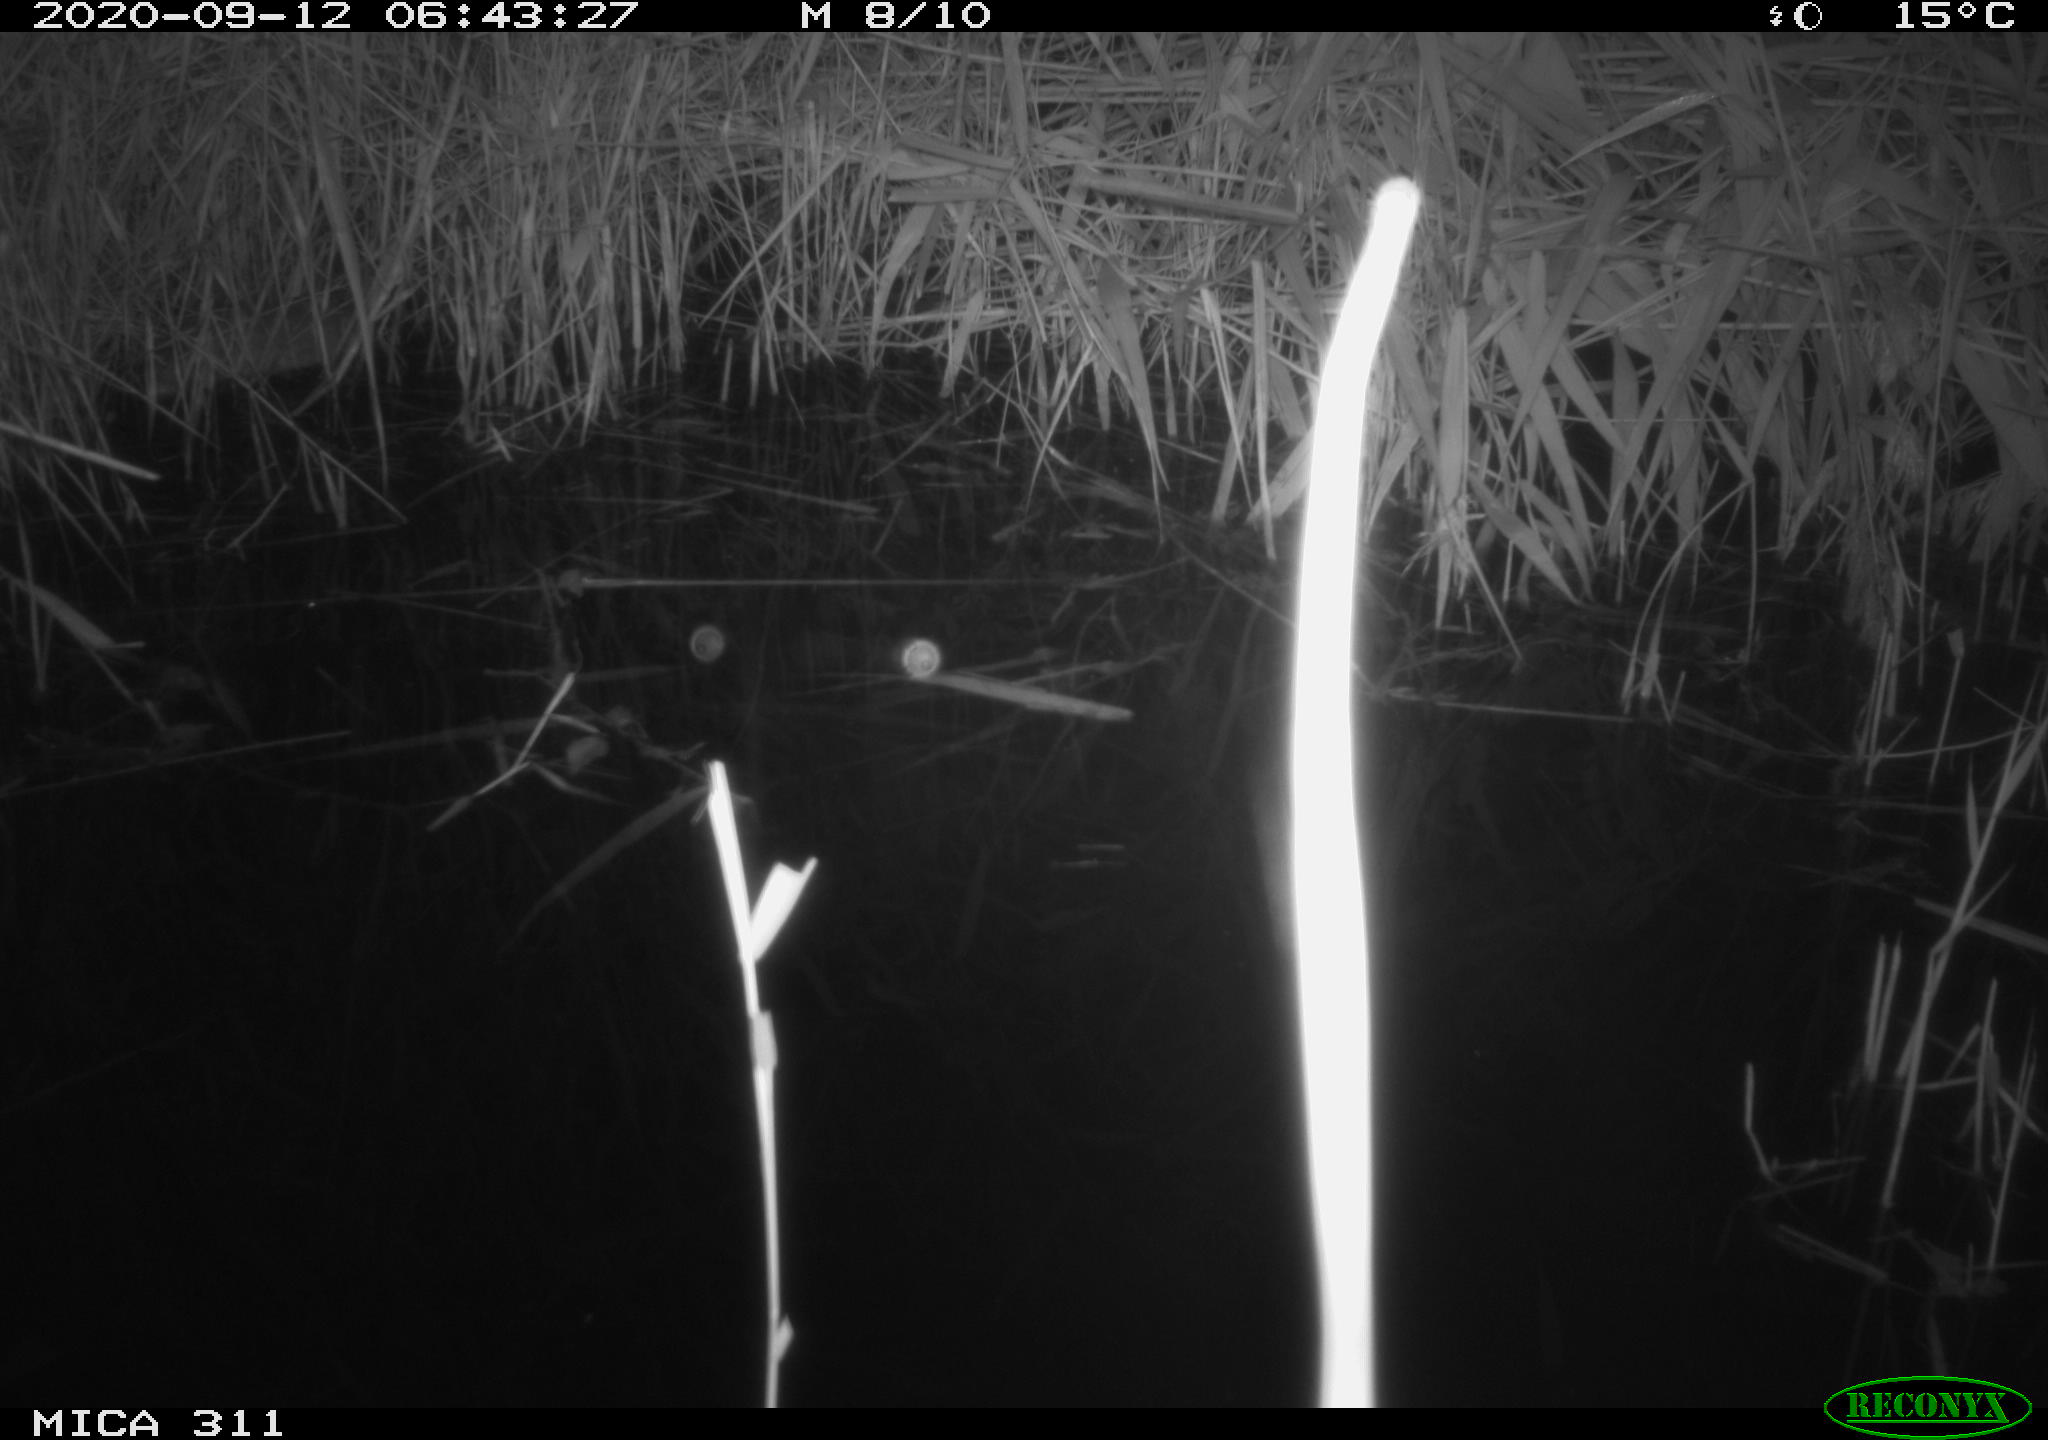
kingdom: Animalia
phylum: Chordata
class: Mammalia
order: Rodentia
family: Cricetidae
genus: Ondatra
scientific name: Ondatra zibethicus
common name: Muskrat
